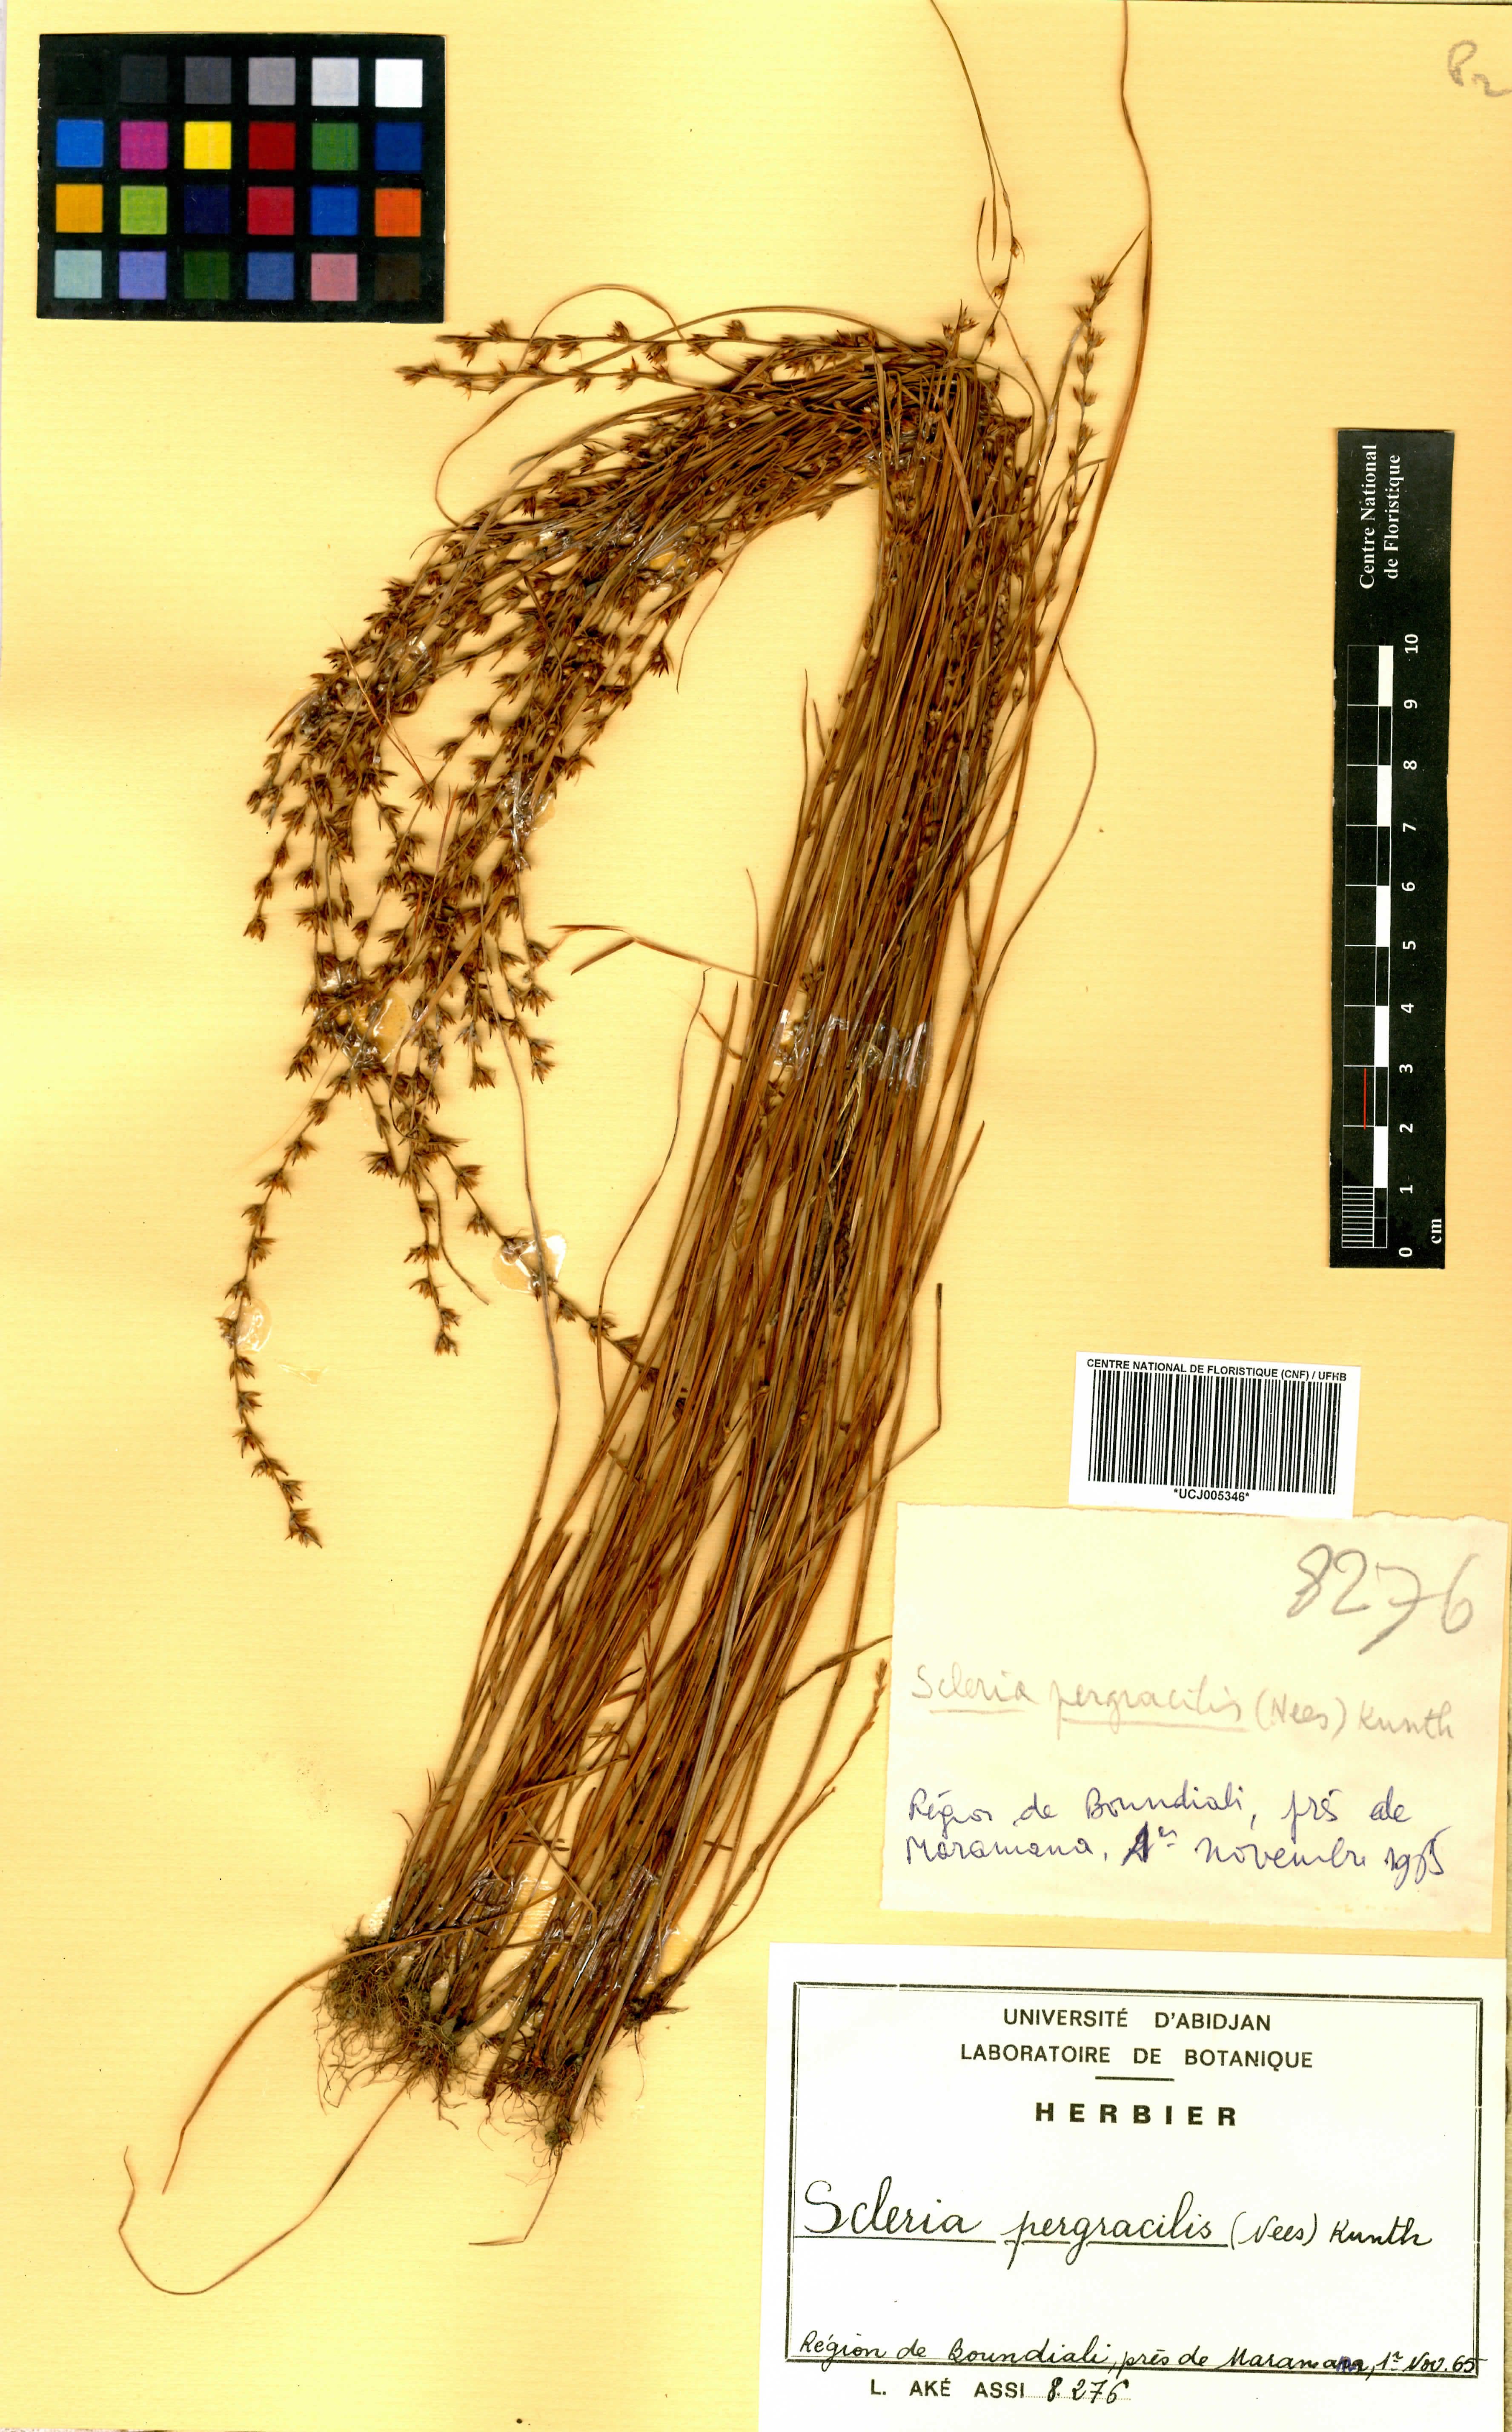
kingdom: Plantae
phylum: Tracheophyta
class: Liliopsida
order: Poales
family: Cyperaceae
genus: Scleria
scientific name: Scleria pergracilis
